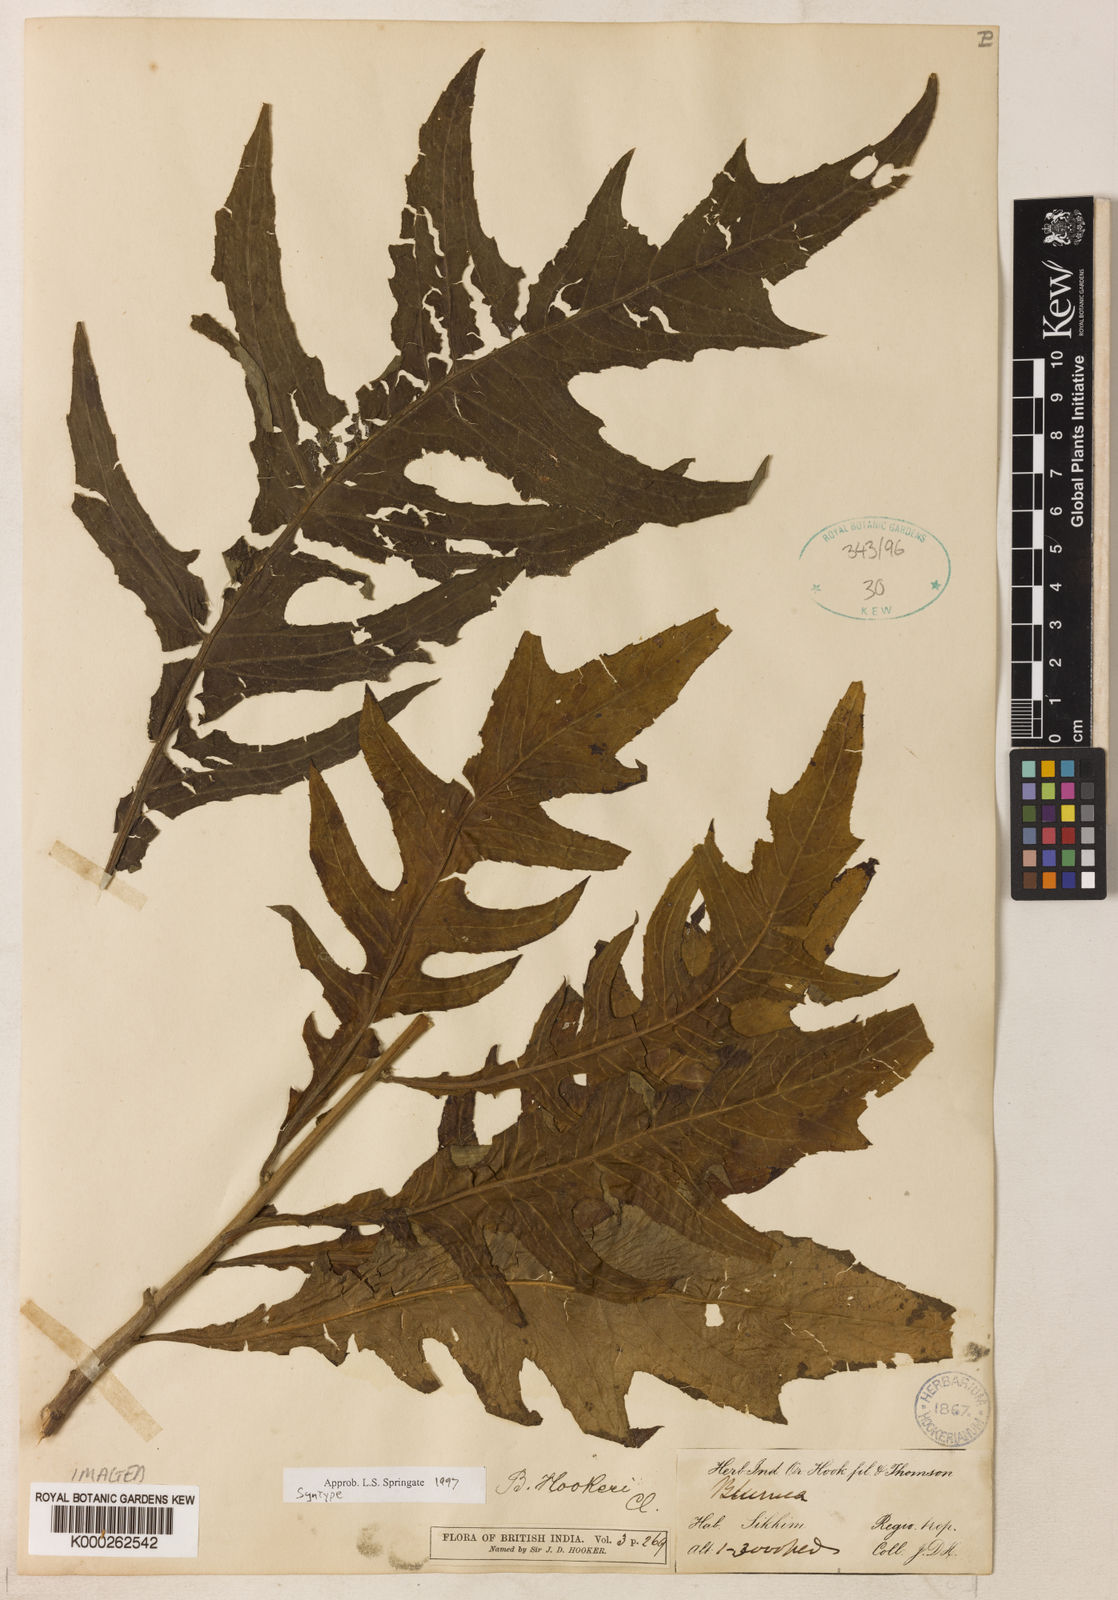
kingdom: Plantae
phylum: Tracheophyta
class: Magnoliopsida
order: Asterales
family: Asteraceae
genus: Blumea
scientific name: Blumea densiflora
